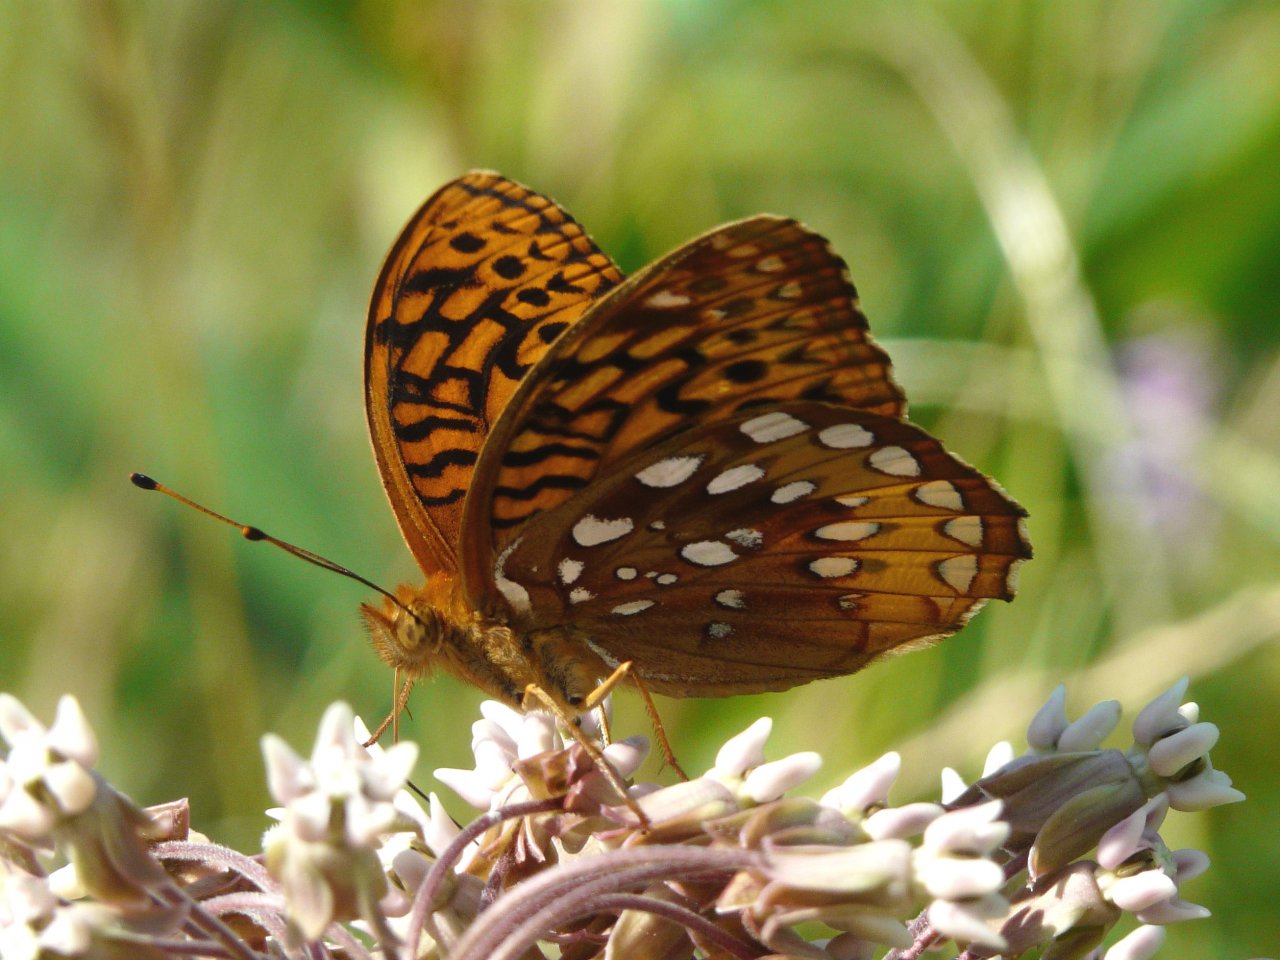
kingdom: Animalia
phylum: Arthropoda
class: Insecta
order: Lepidoptera
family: Nymphalidae
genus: Speyeria
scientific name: Speyeria cybele
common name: Great Spangled Fritillary
